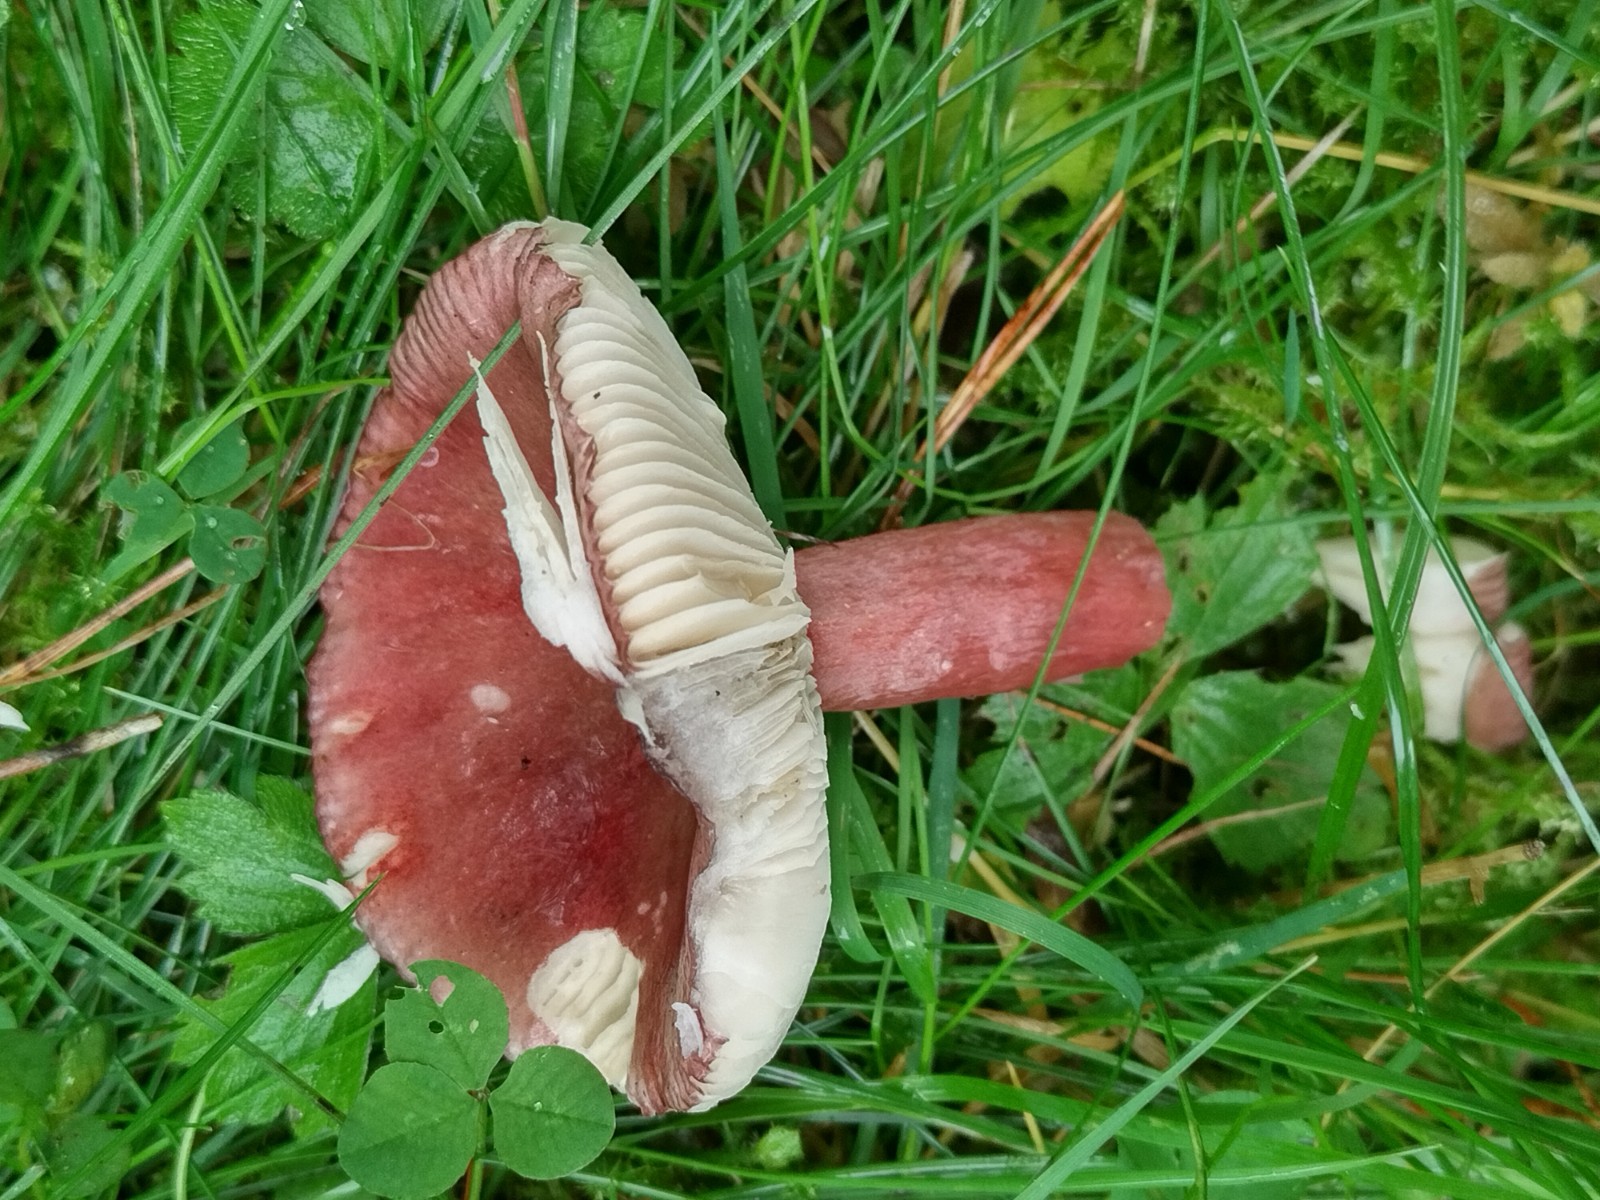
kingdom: Fungi
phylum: Basidiomycota
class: Agaricomycetes
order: Russulales
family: Russulaceae
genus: Russula
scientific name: Russula queletii
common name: Quélets skørhat
